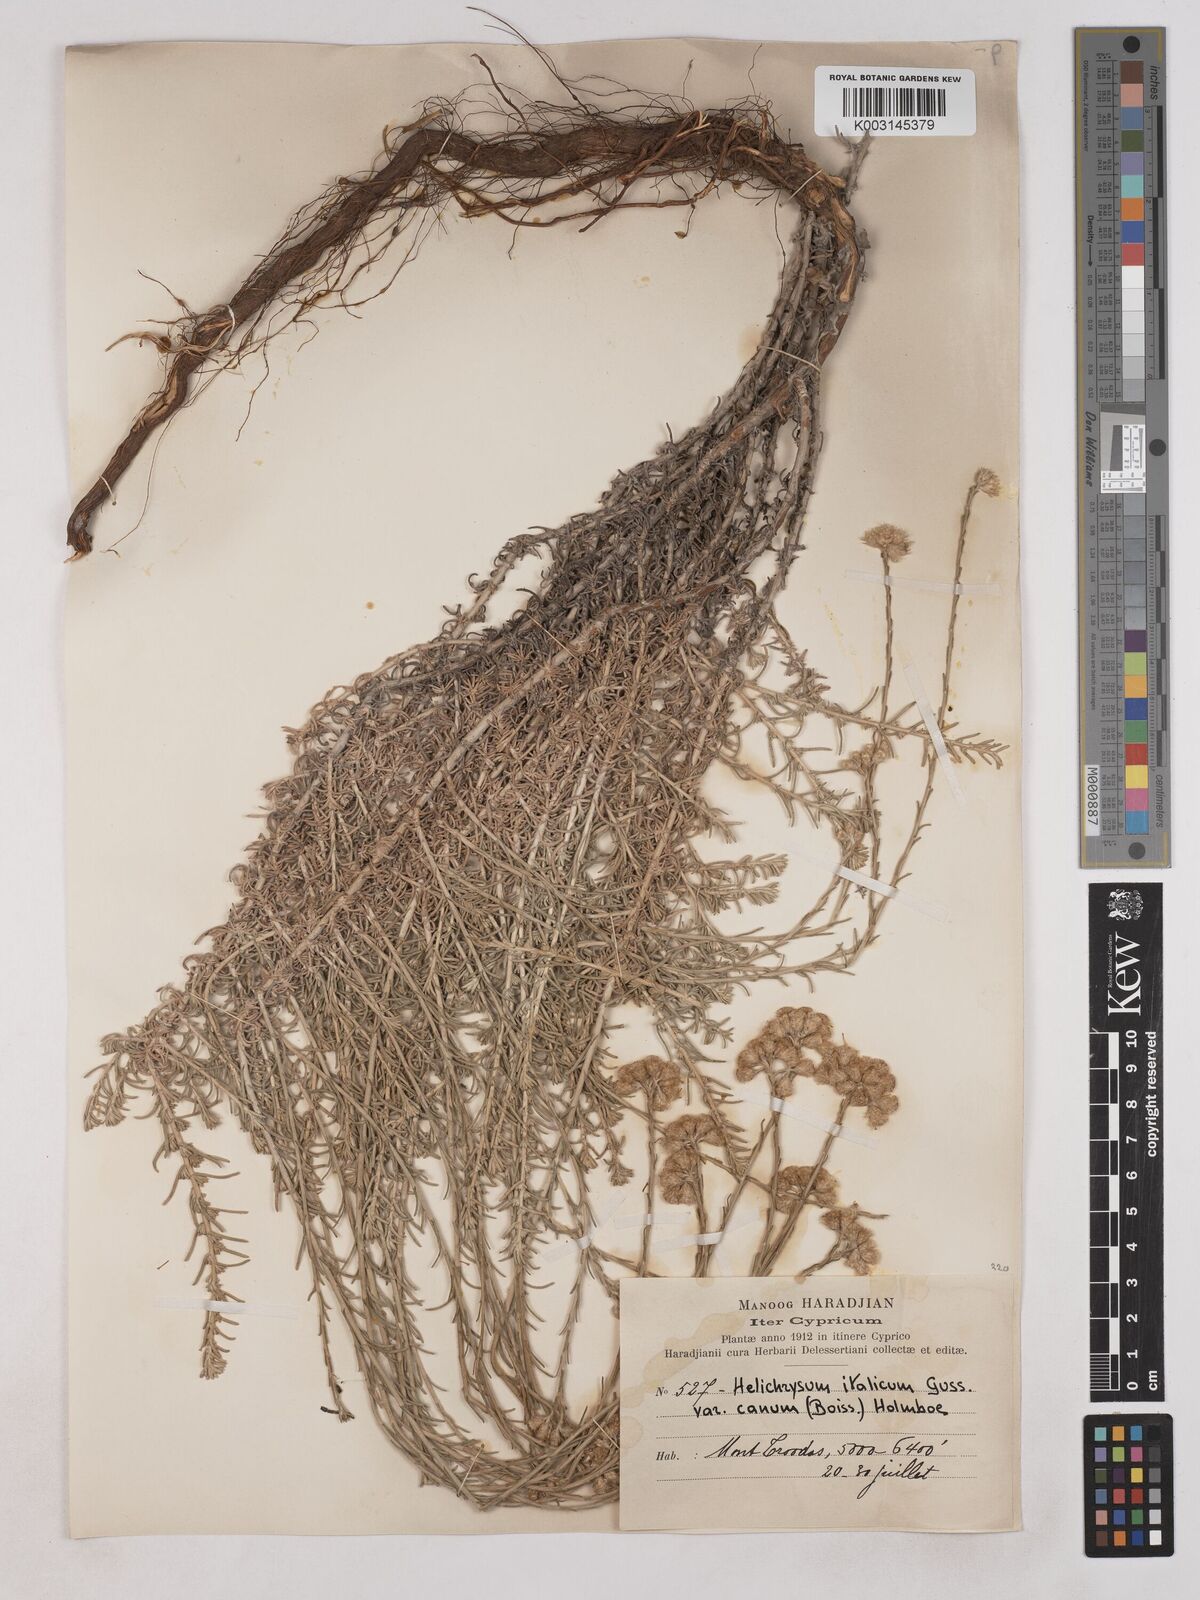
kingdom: Plantae
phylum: Tracheophyta
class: Magnoliopsida
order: Asterales
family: Asteraceae
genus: Helichrysum
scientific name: Helichrysum italicum
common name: Curryplant
